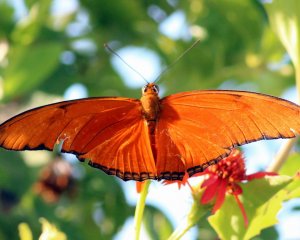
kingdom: Animalia
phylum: Arthropoda
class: Insecta
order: Lepidoptera
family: Nymphalidae
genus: Dryas
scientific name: Dryas iulia
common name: Julia
